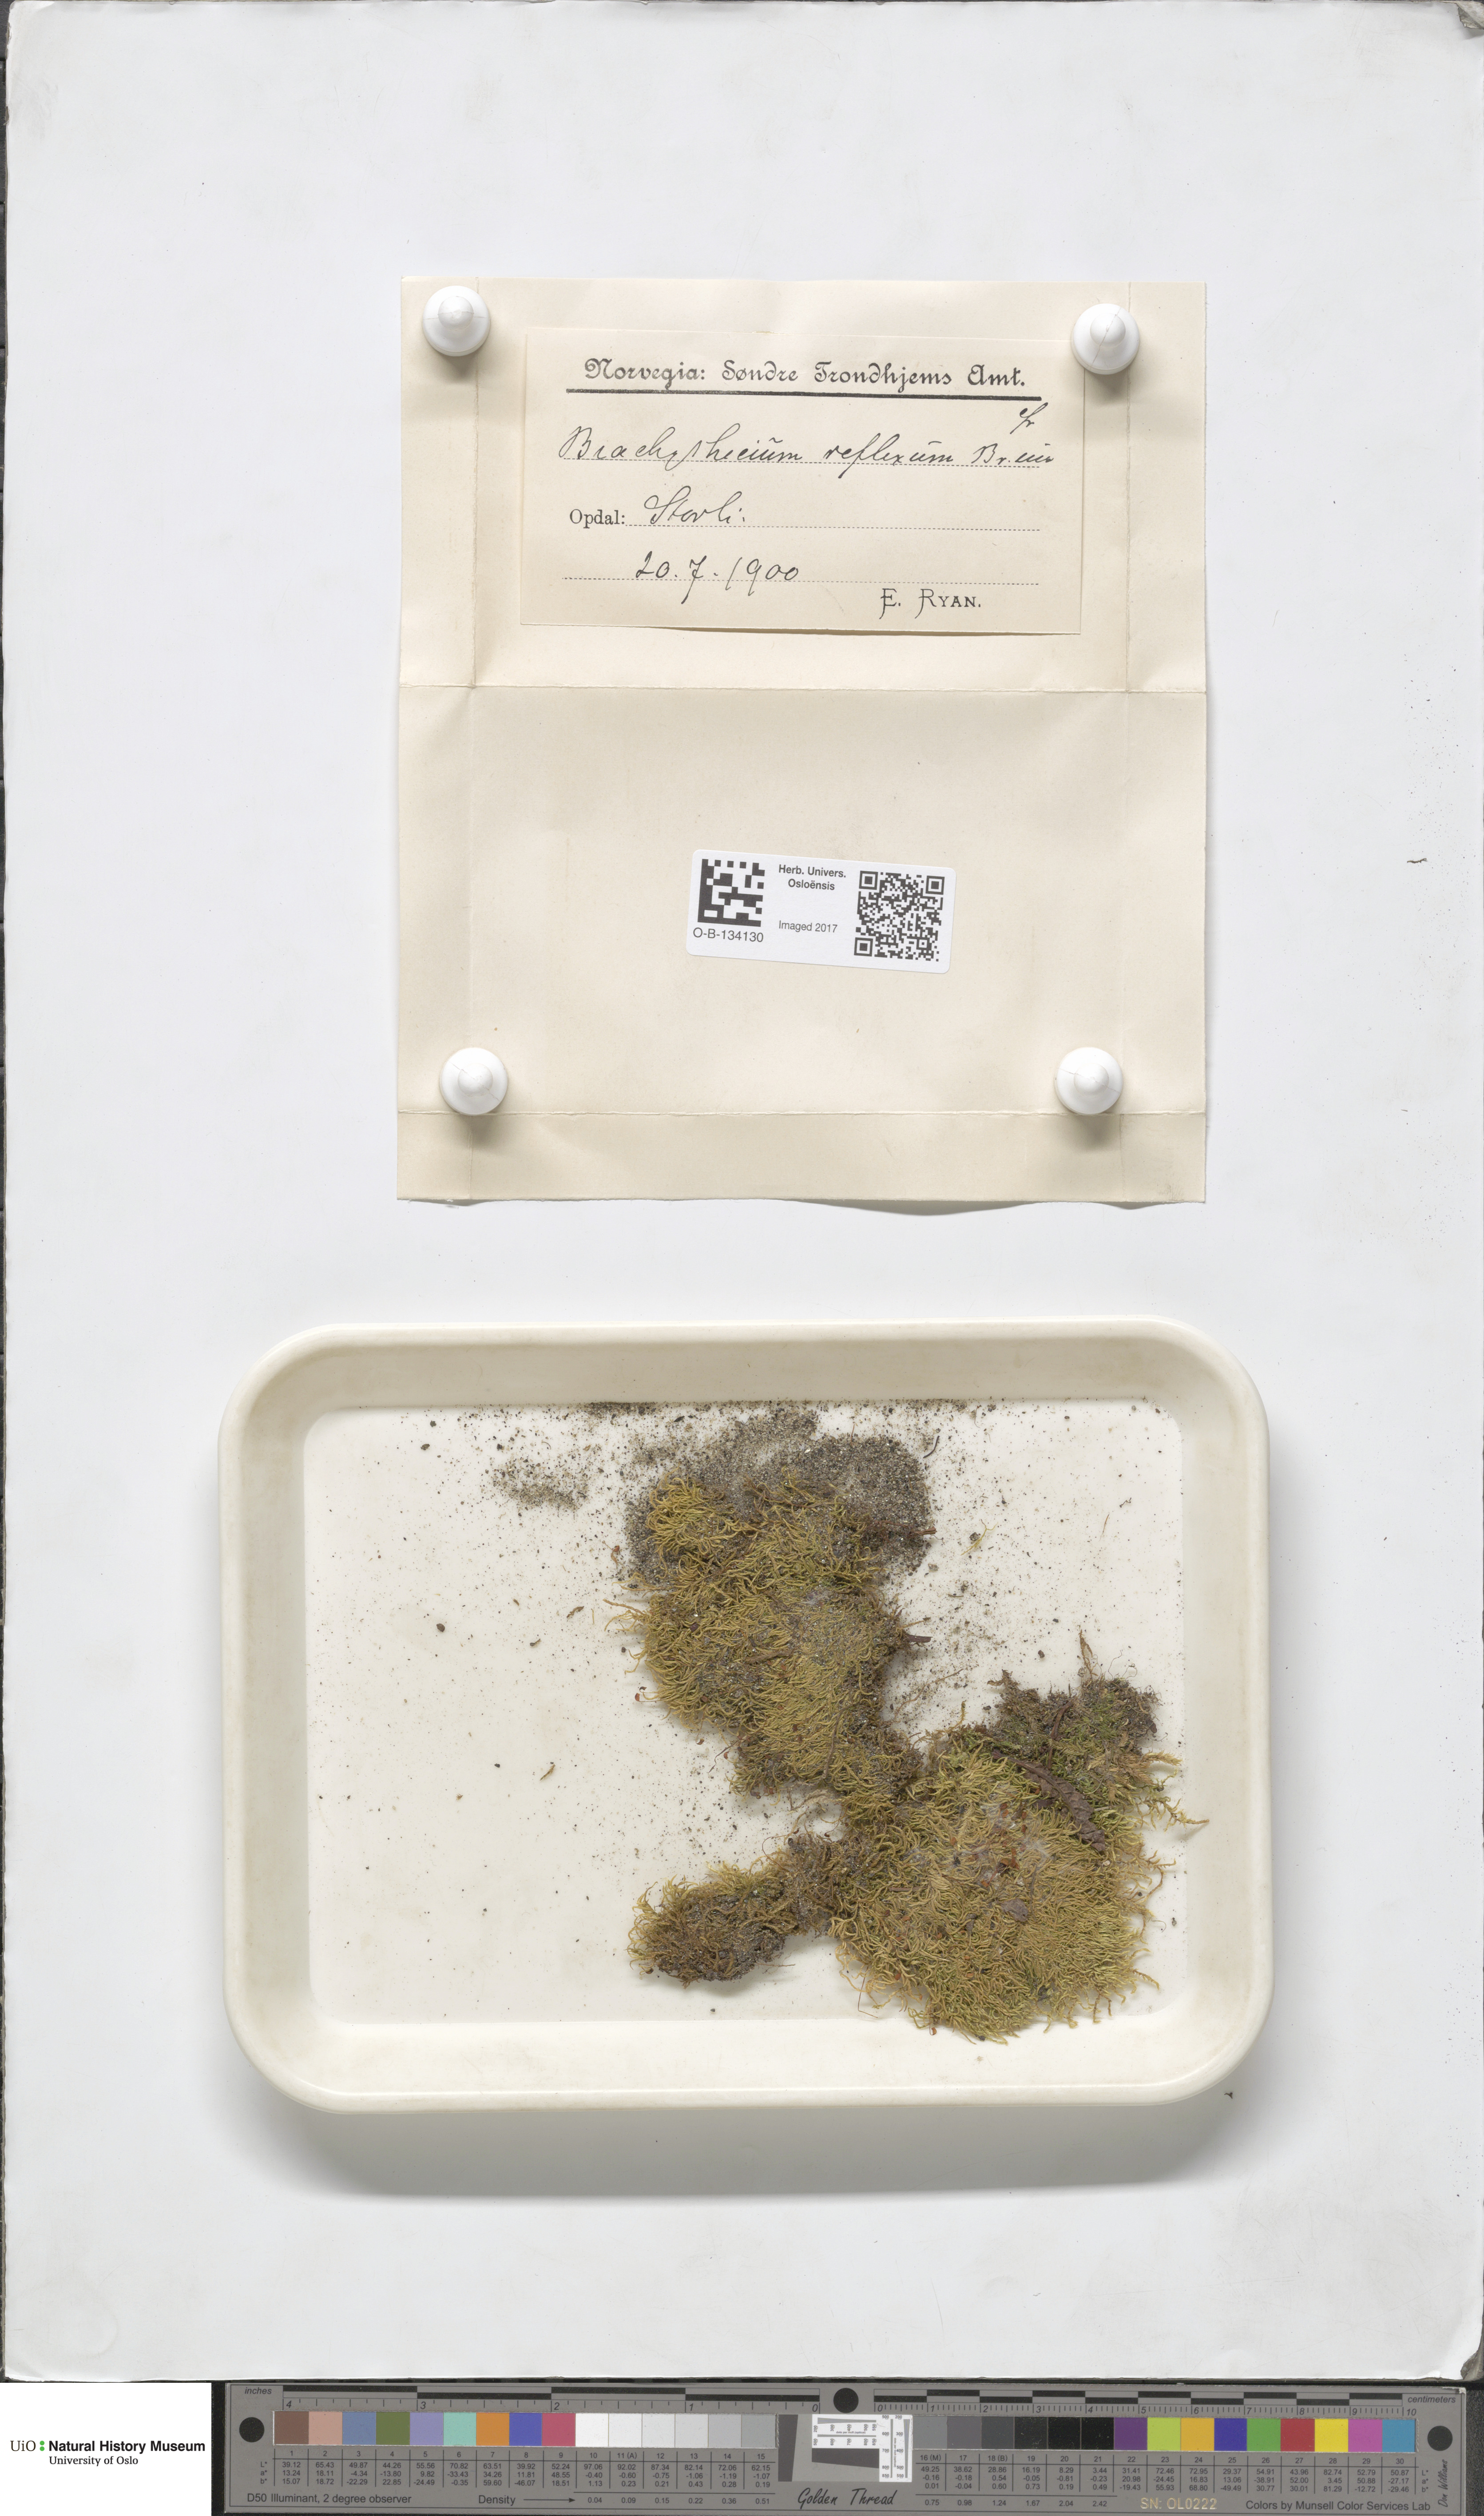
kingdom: Plantae
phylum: Bryophyta
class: Bryopsida
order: Hypnales
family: Brachytheciaceae
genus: Sciuro-hypnum
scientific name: Sciuro-hypnum reflexum
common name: Reflexed feather-moss
